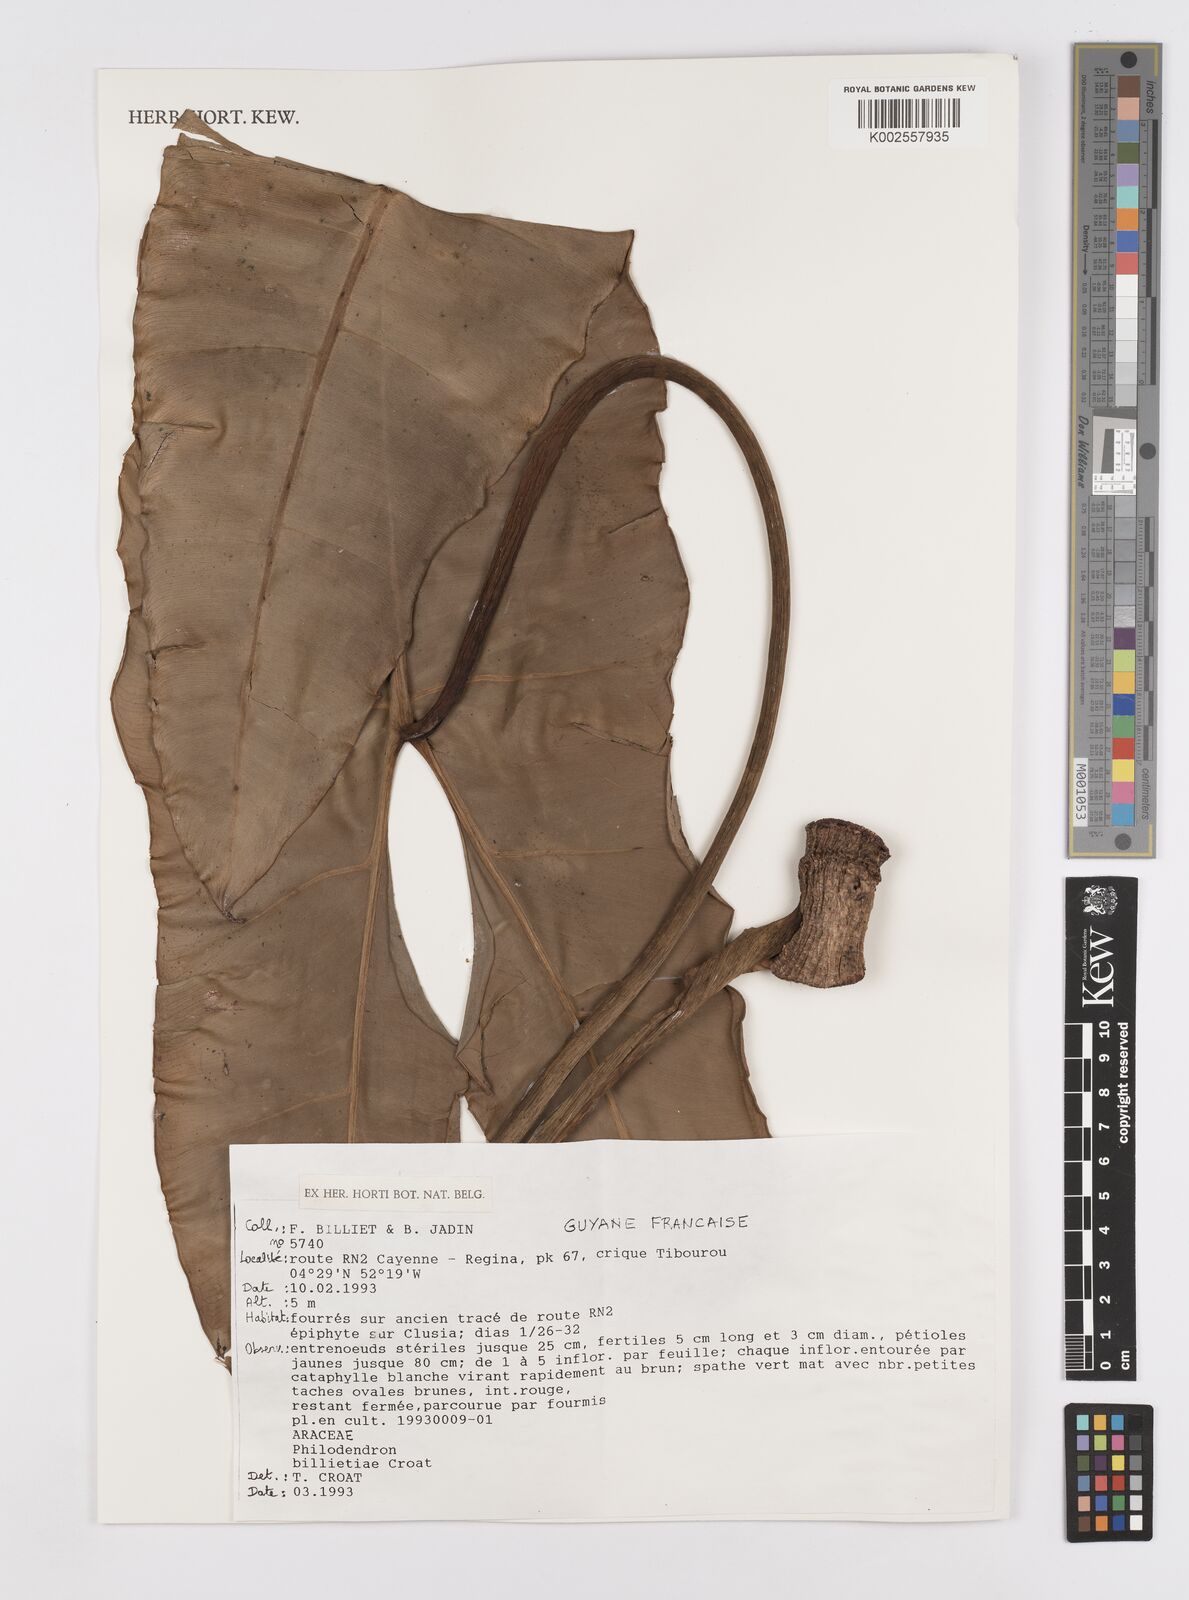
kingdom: Plantae
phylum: Tracheophyta
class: Liliopsida
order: Alismatales
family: Araceae
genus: Philodendron
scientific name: Philodendron billietiae
